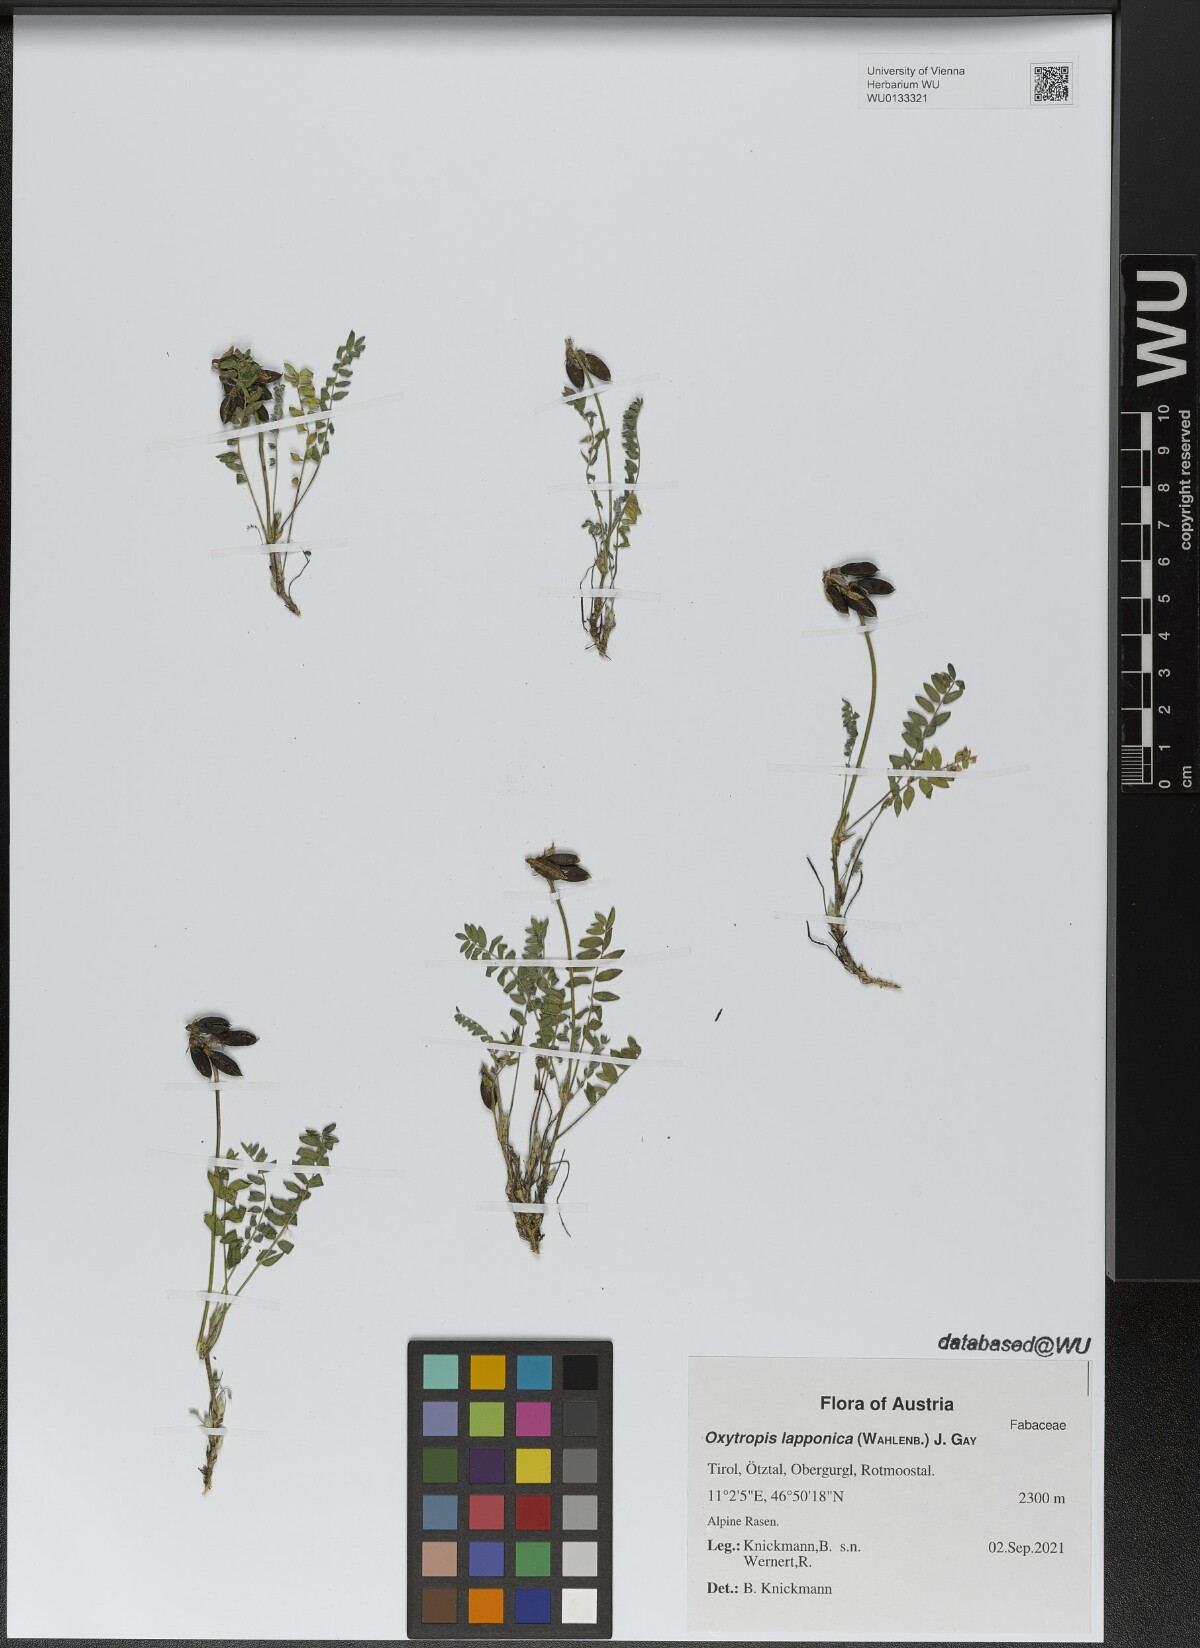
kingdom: Plantae
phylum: Tracheophyta
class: Magnoliopsida
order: Fabales
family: Fabaceae
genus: Oxytropis
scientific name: Oxytropis lapponica
